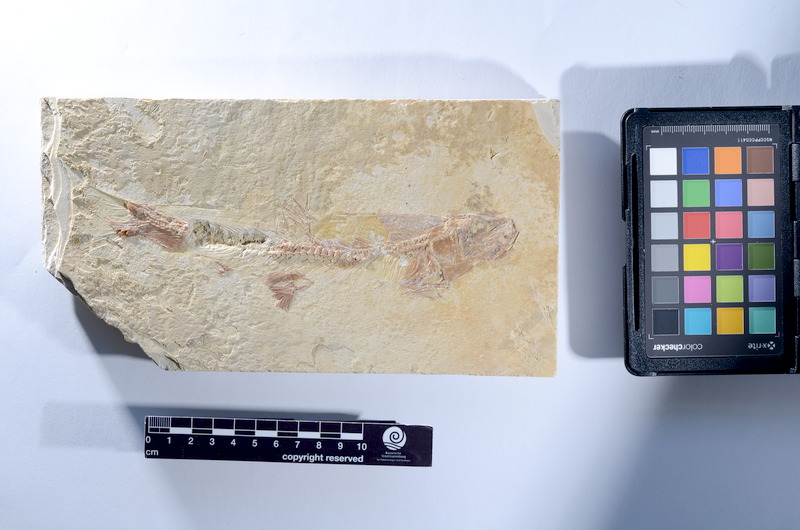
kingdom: Animalia
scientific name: Animalia
